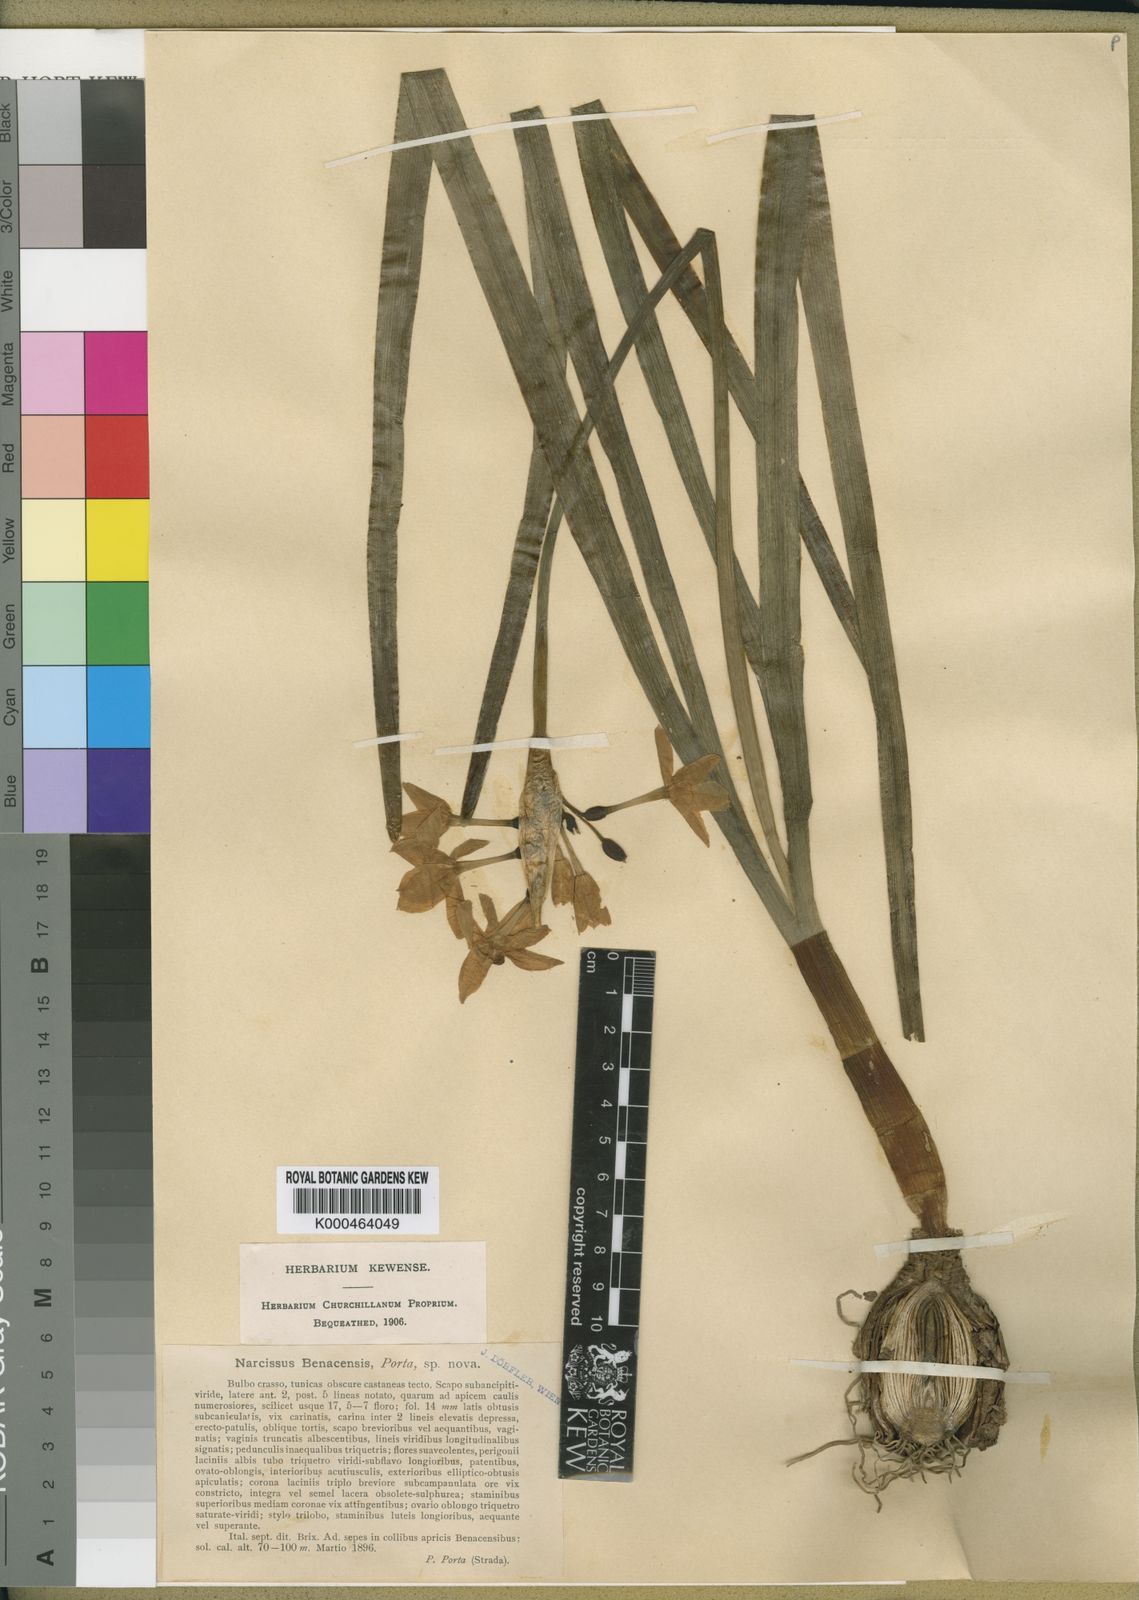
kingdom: Plantae
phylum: Tracheophyta
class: Liliopsida
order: Asparagales
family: Amaryllidaceae
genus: Narcissus
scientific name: Narcissus benacensis
